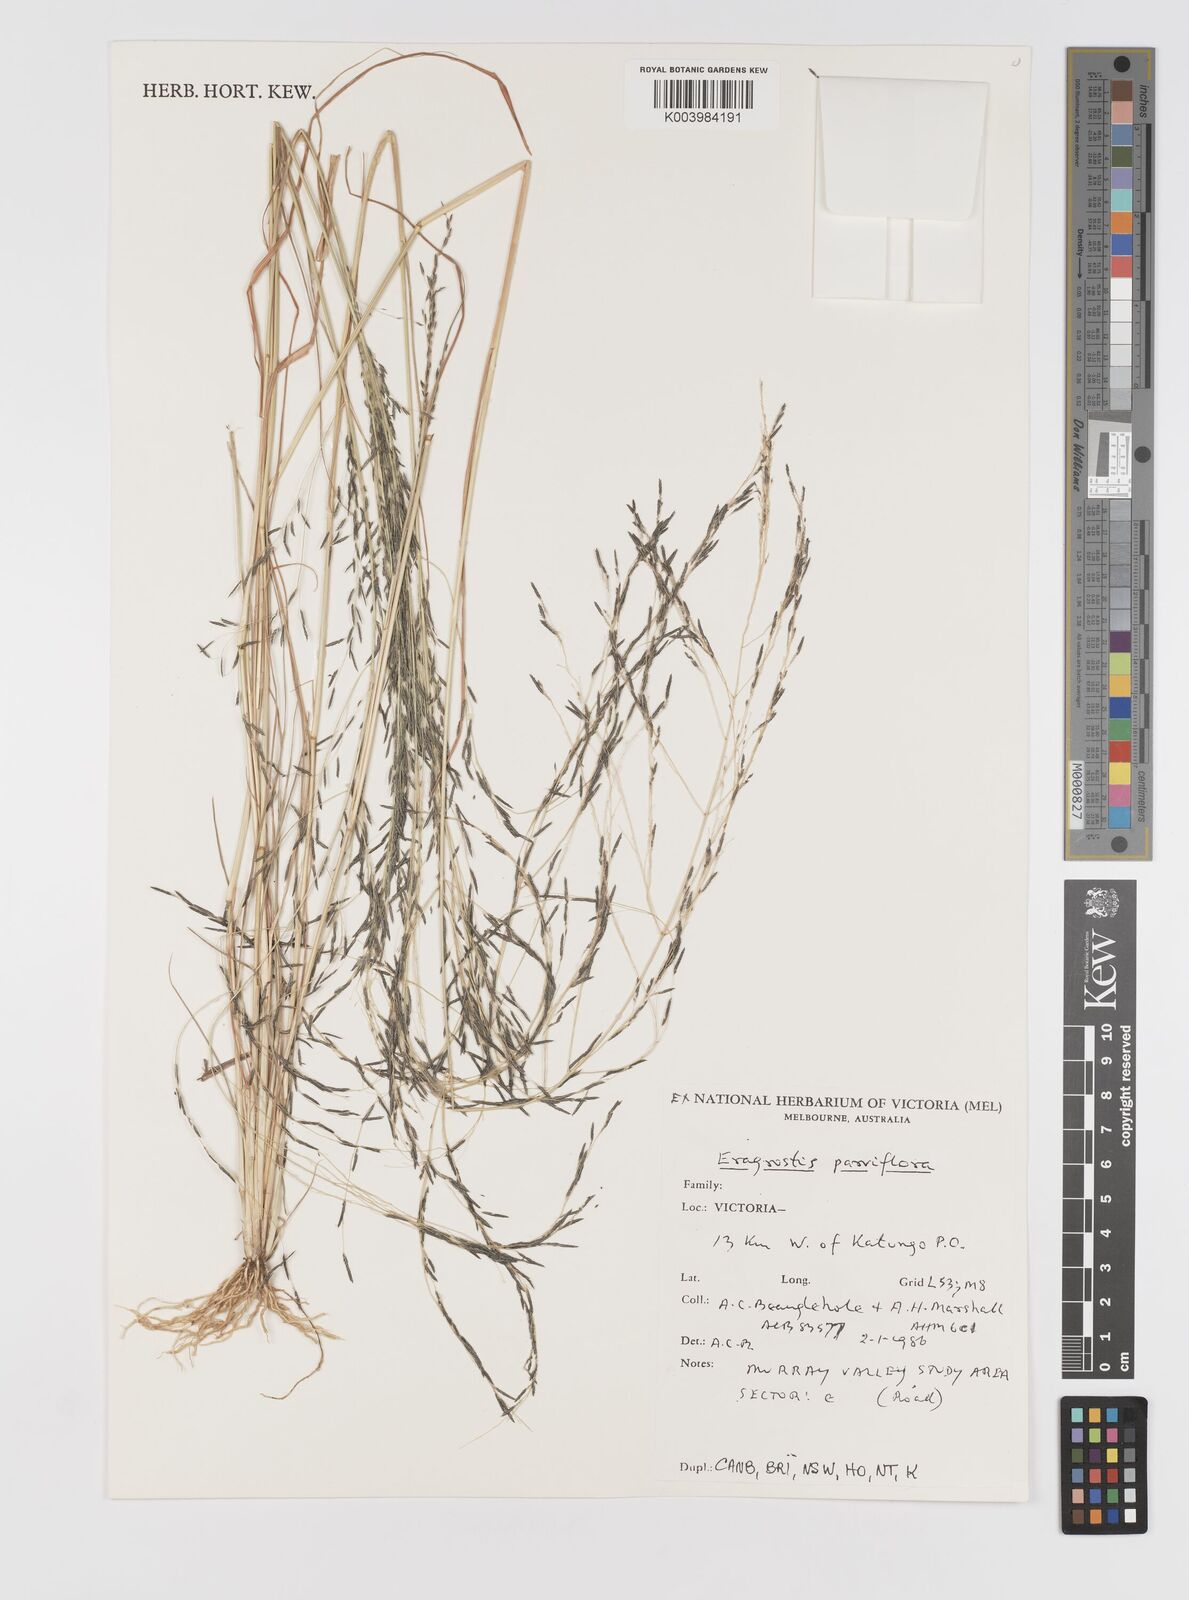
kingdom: Plantae
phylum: Tracheophyta
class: Liliopsida
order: Poales
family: Poaceae
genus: Eragrostis
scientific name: Eragrostis parviflora
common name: Weeping love-grass
